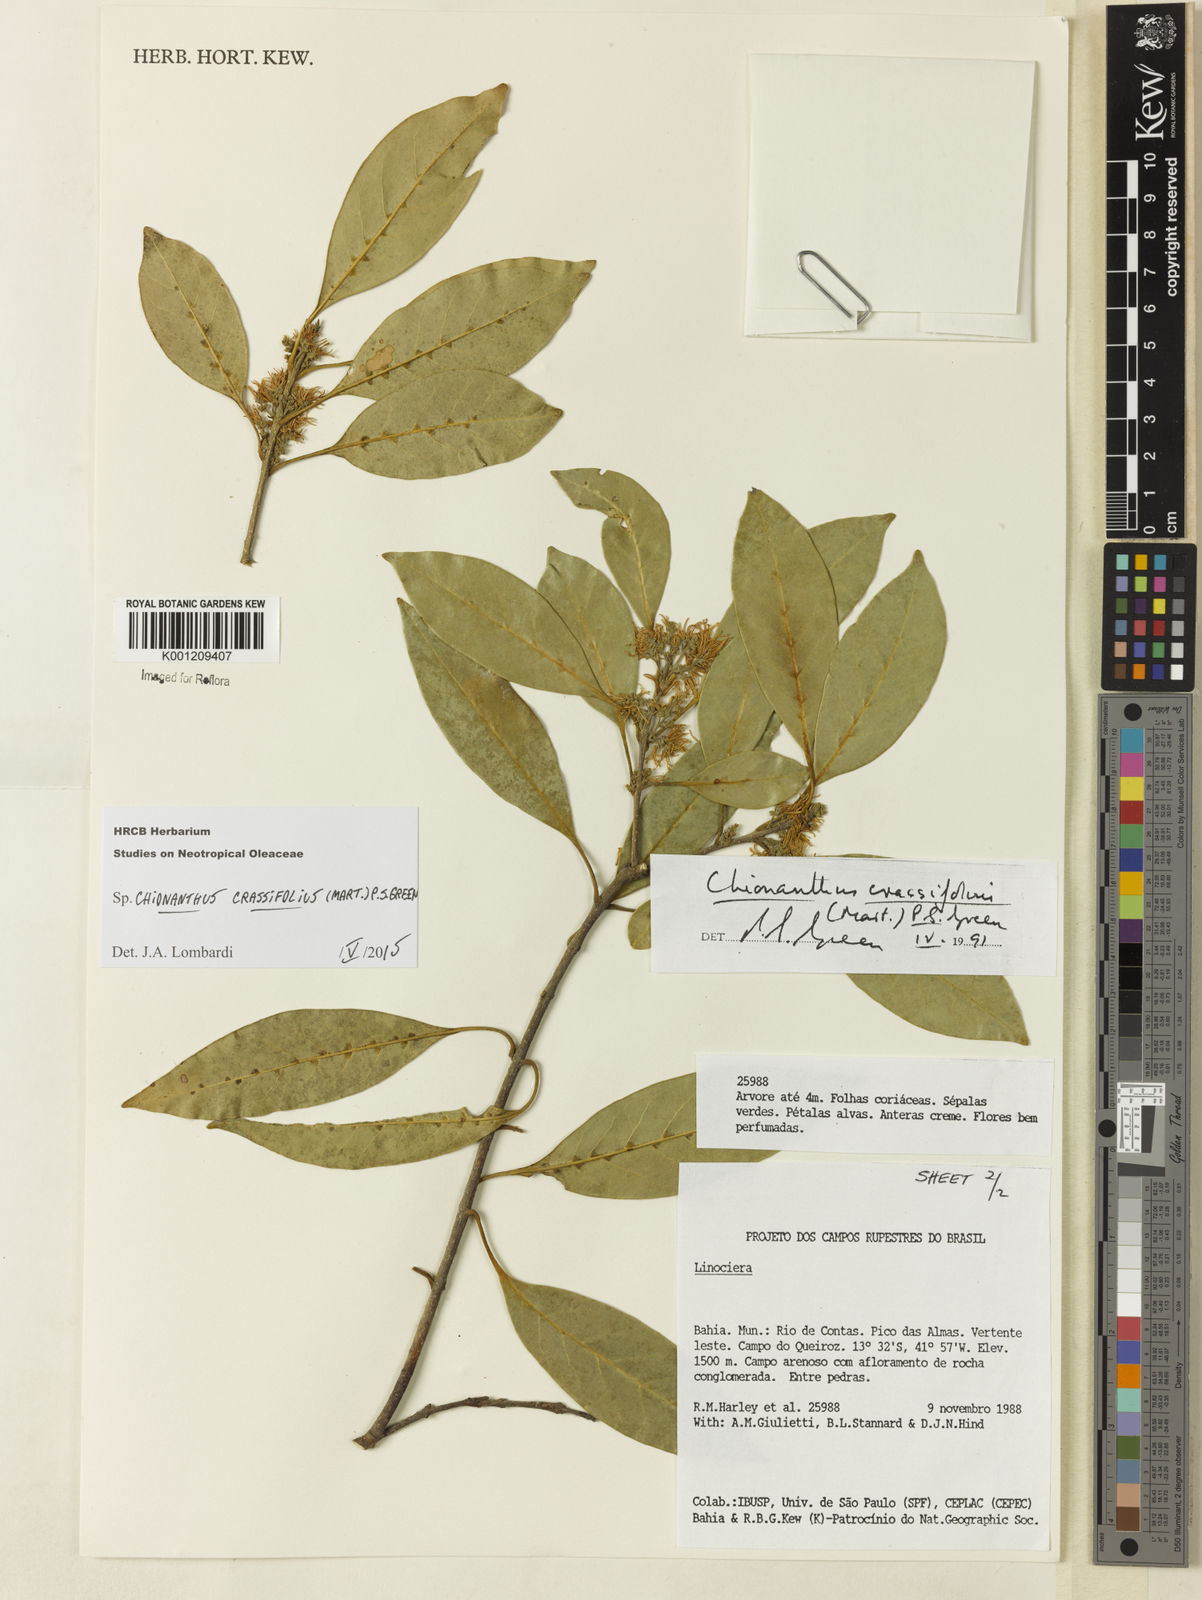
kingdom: Plantae
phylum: Tracheophyta
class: Magnoliopsida
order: Lamiales
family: Oleaceae
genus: Chionanthus
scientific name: Chionanthus crassifolius
